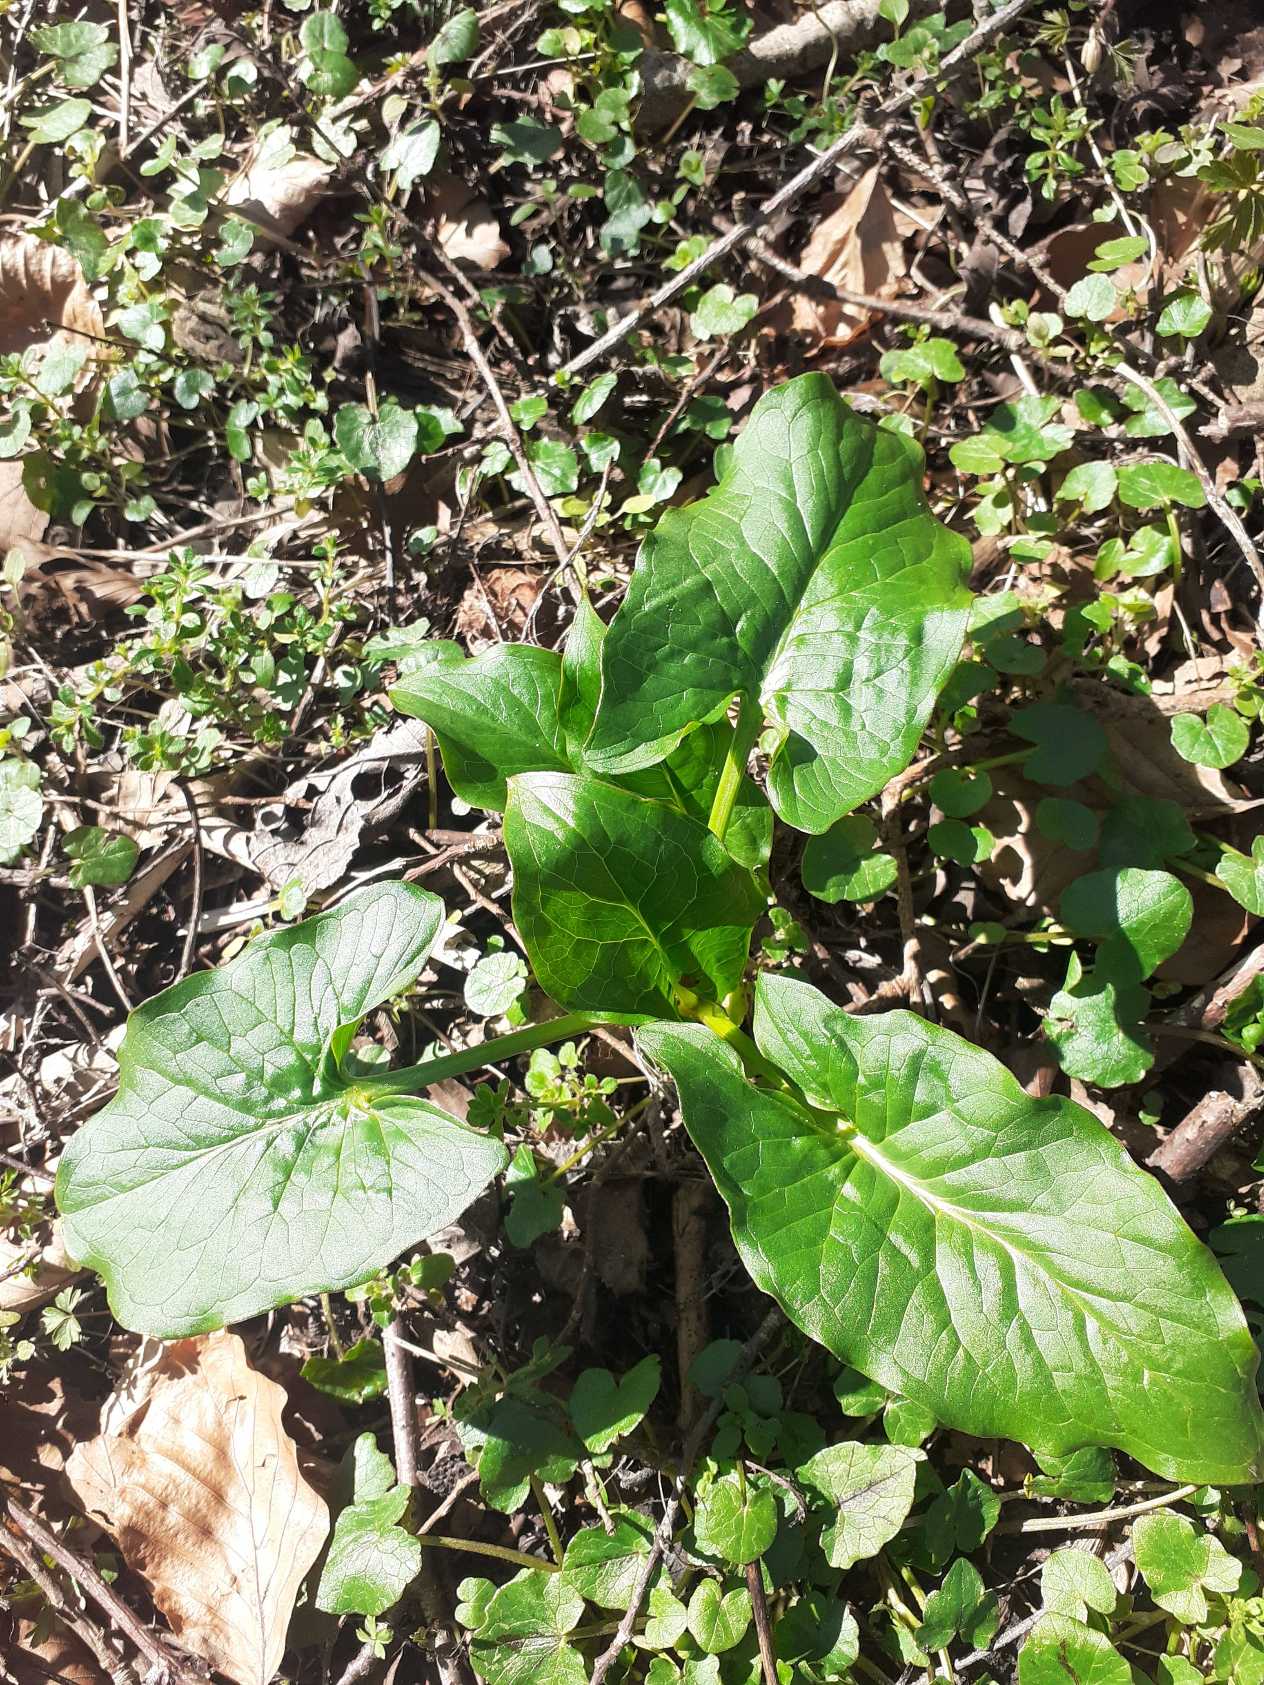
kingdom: Plantae
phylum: Tracheophyta
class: Liliopsida
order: Alismatales
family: Araceae
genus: Arum
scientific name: Arum
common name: Arumslægten
